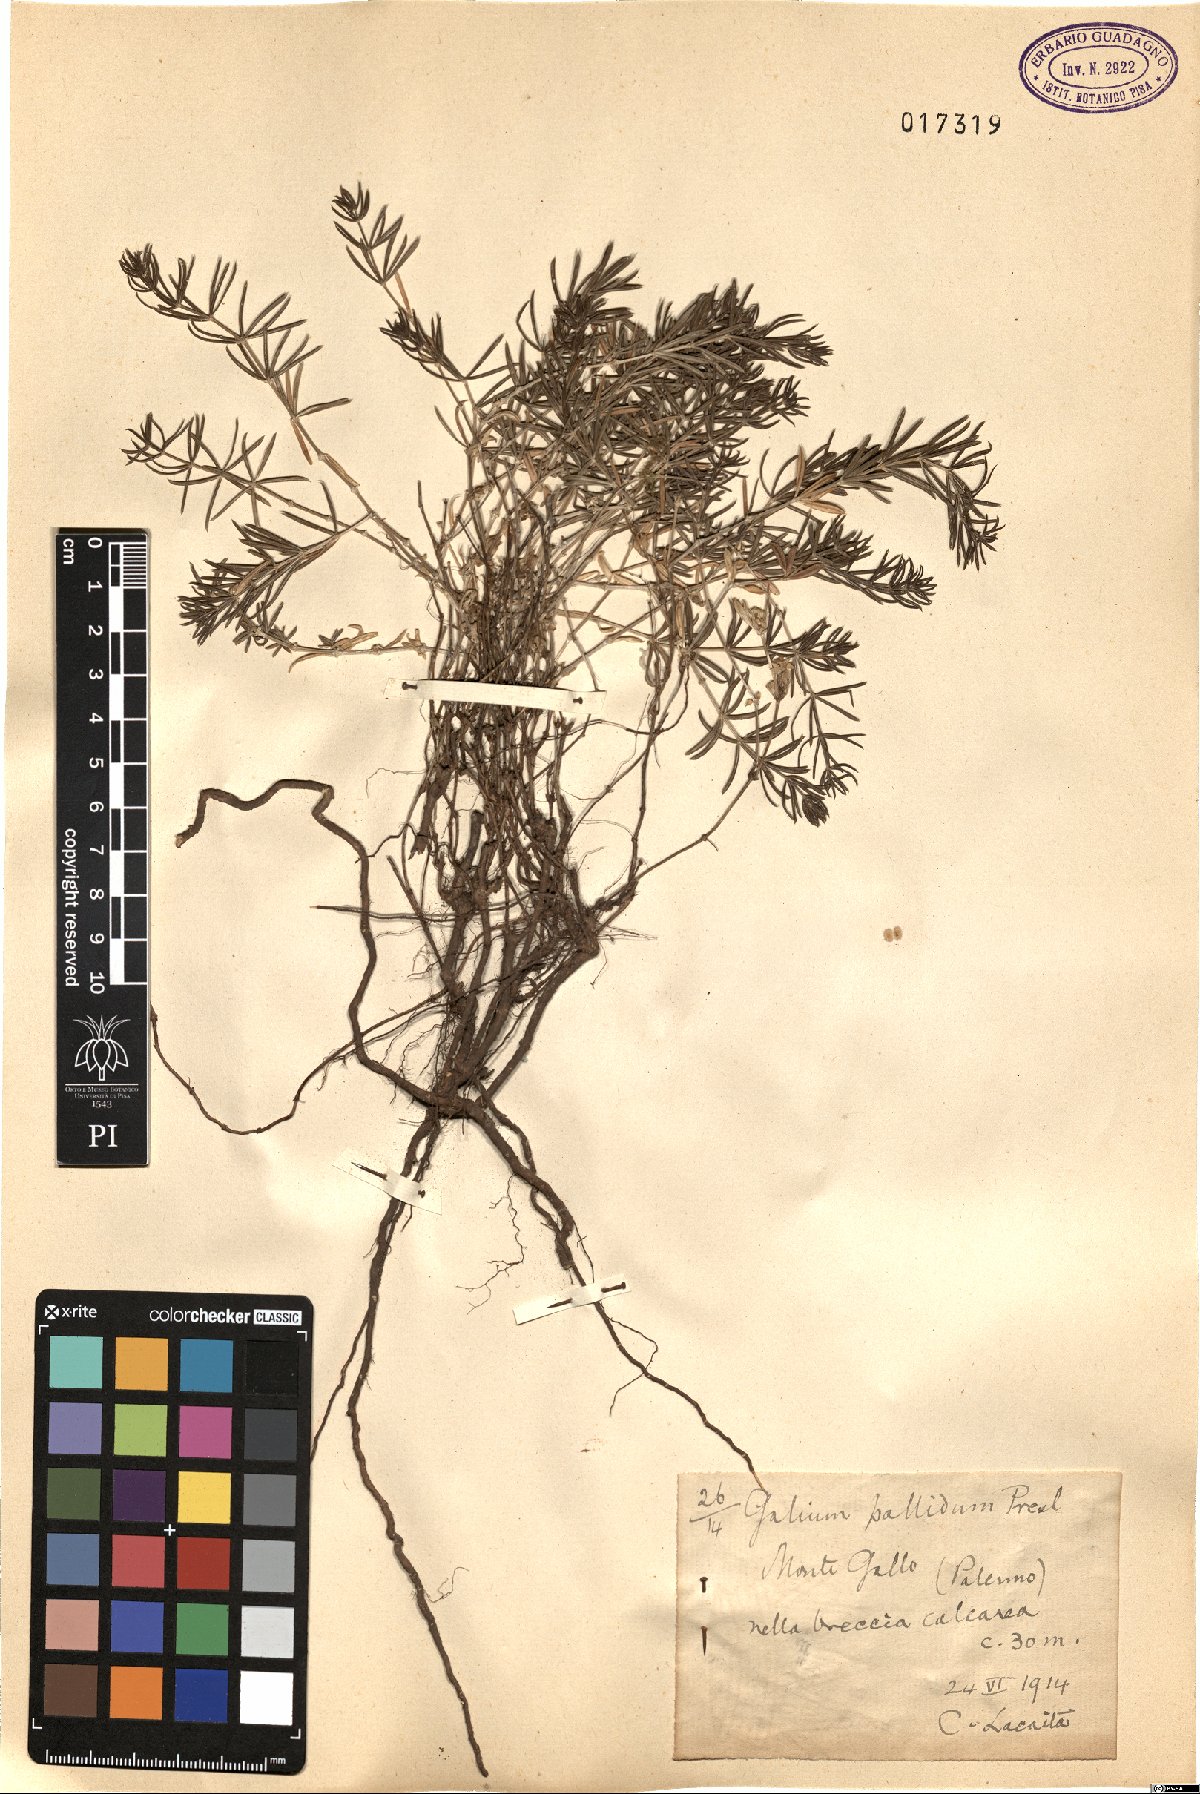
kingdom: Plantae
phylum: Tracheophyta
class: Magnoliopsida
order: Gentianales
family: Rubiaceae
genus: Galium
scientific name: Galium cinereum
